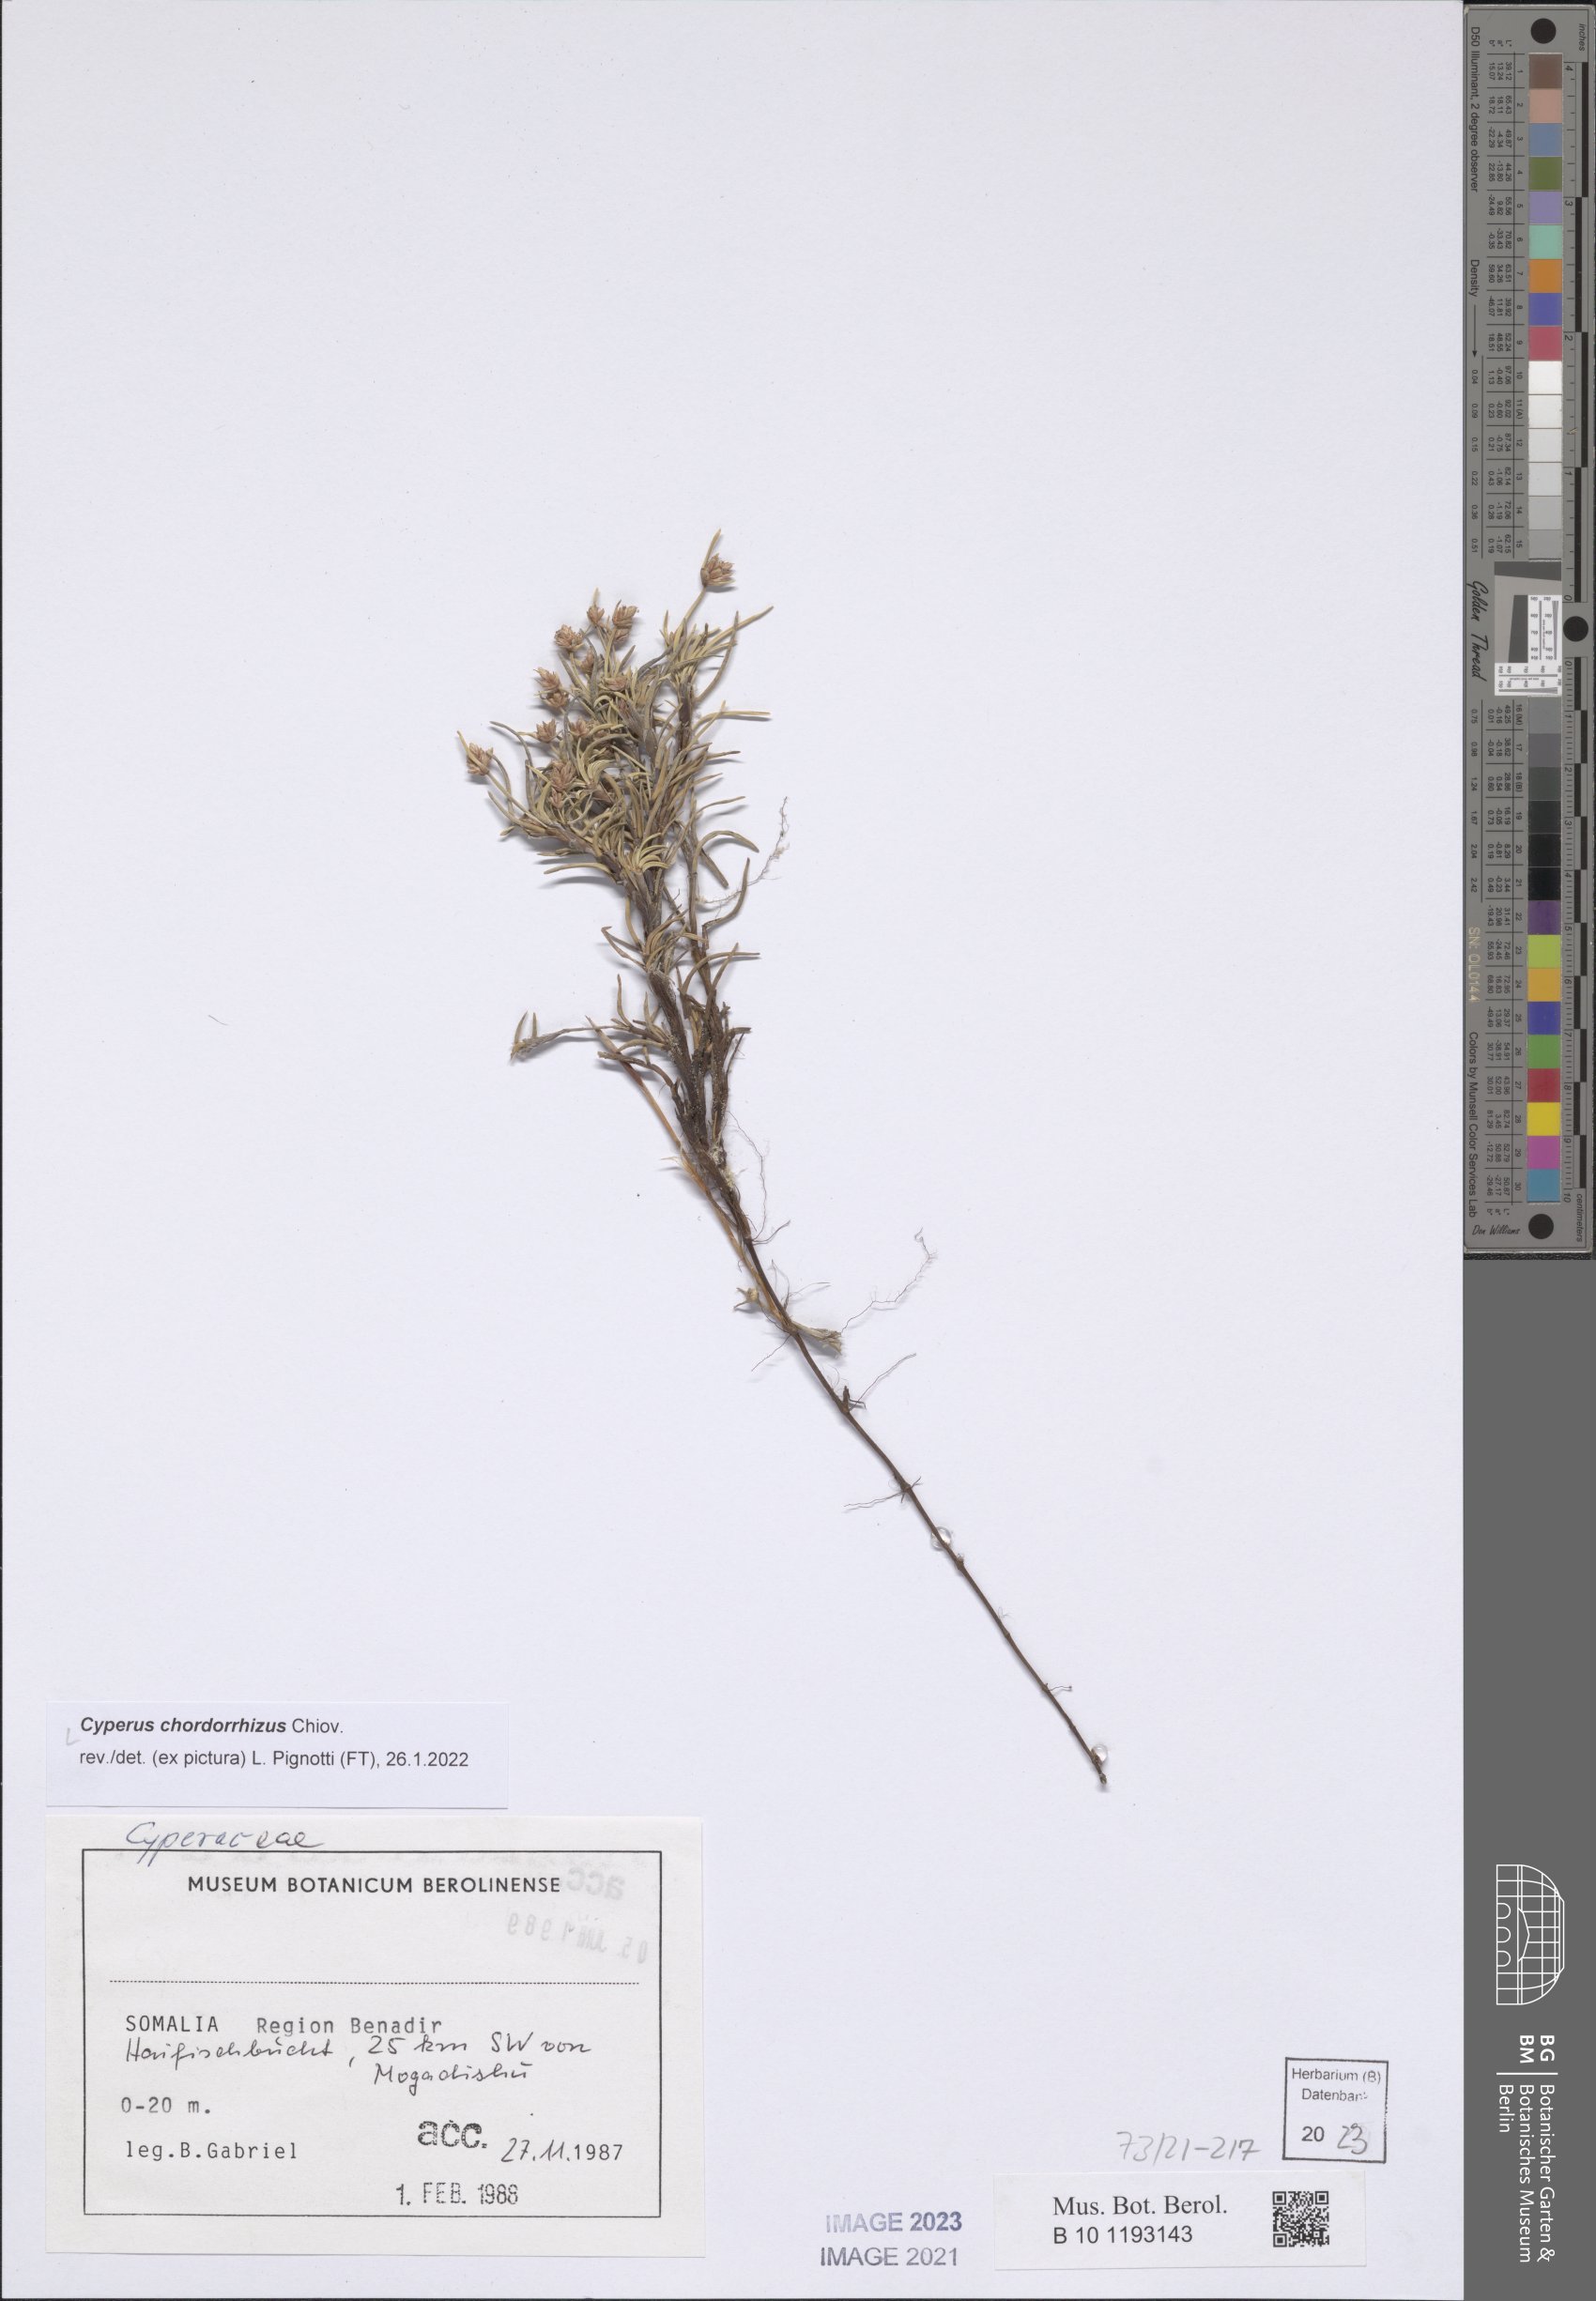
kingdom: Plantae
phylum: Tracheophyta
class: Liliopsida
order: Poales
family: Cyperaceae
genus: Cyperus
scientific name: Cyperus chordorrhizus
